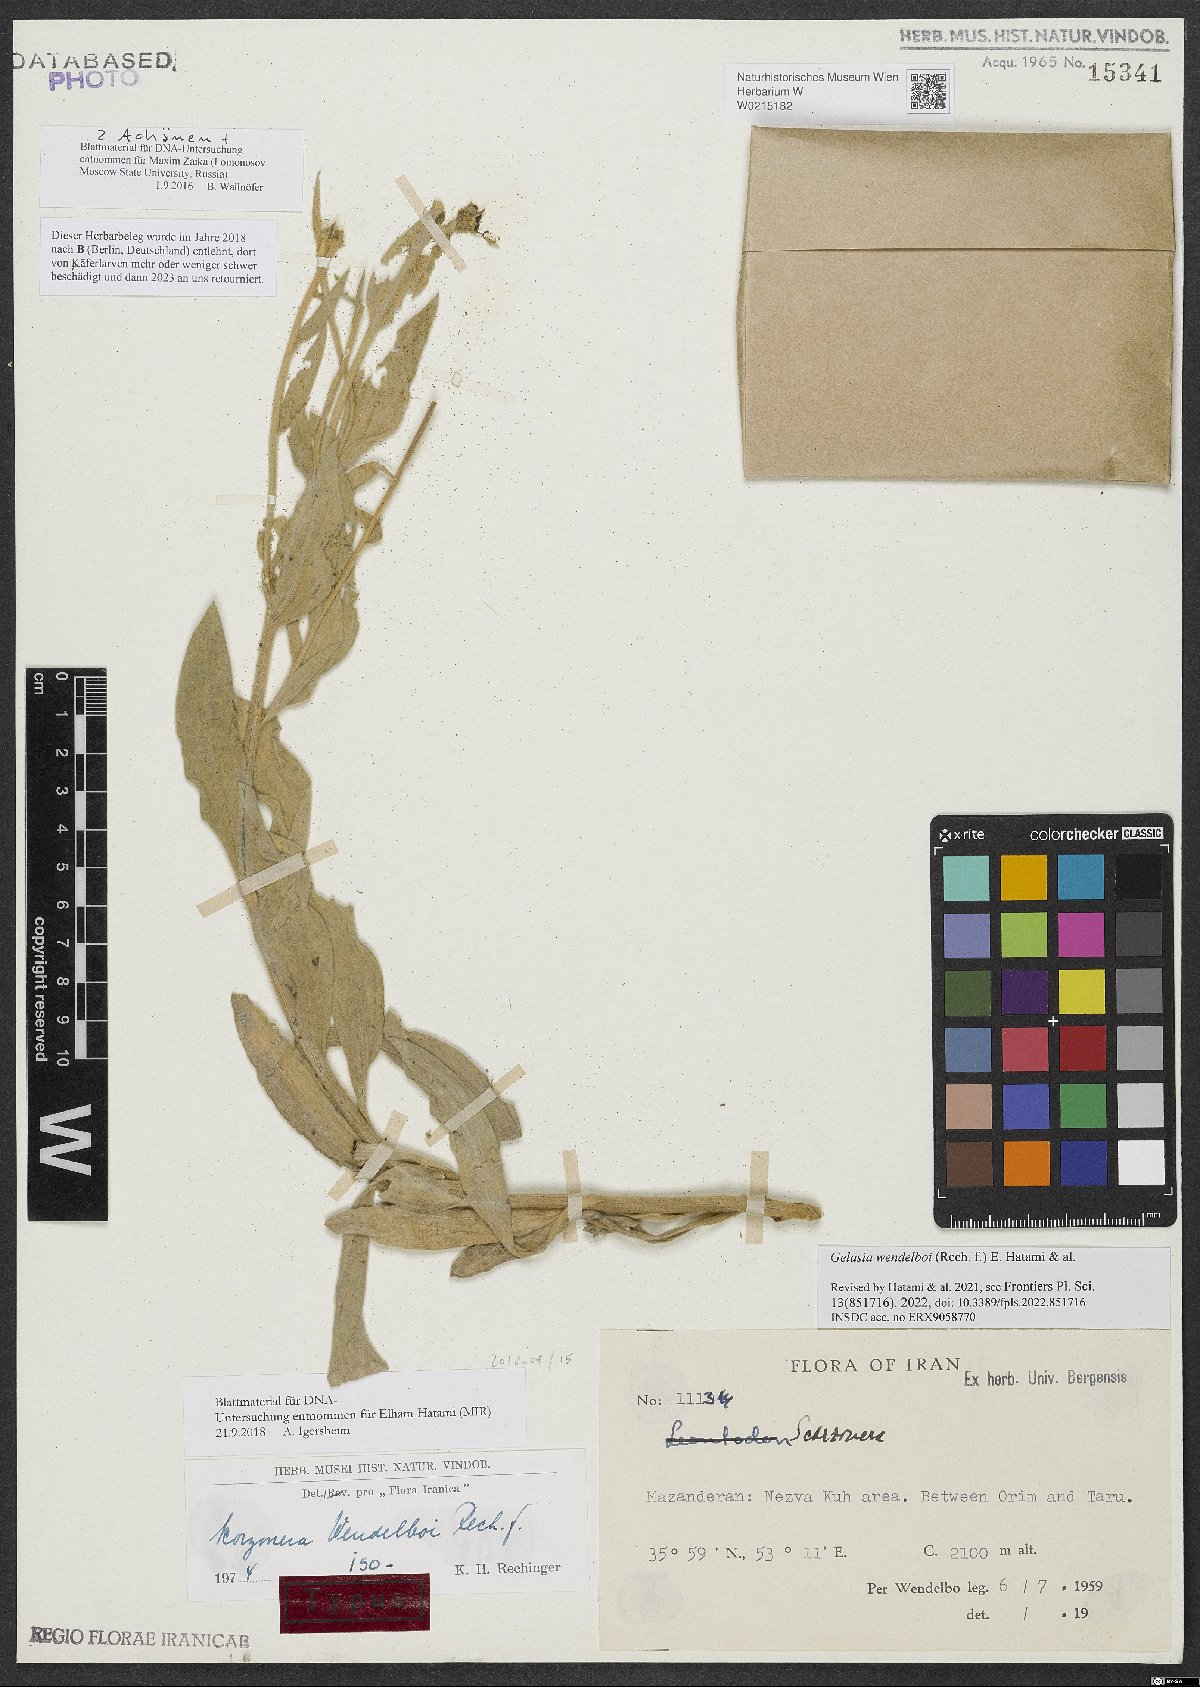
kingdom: Plantae
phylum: Tracheophyta
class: Magnoliopsida
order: Asterales
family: Asteraceae
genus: Scorzonera
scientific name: Scorzonera wendelboi
